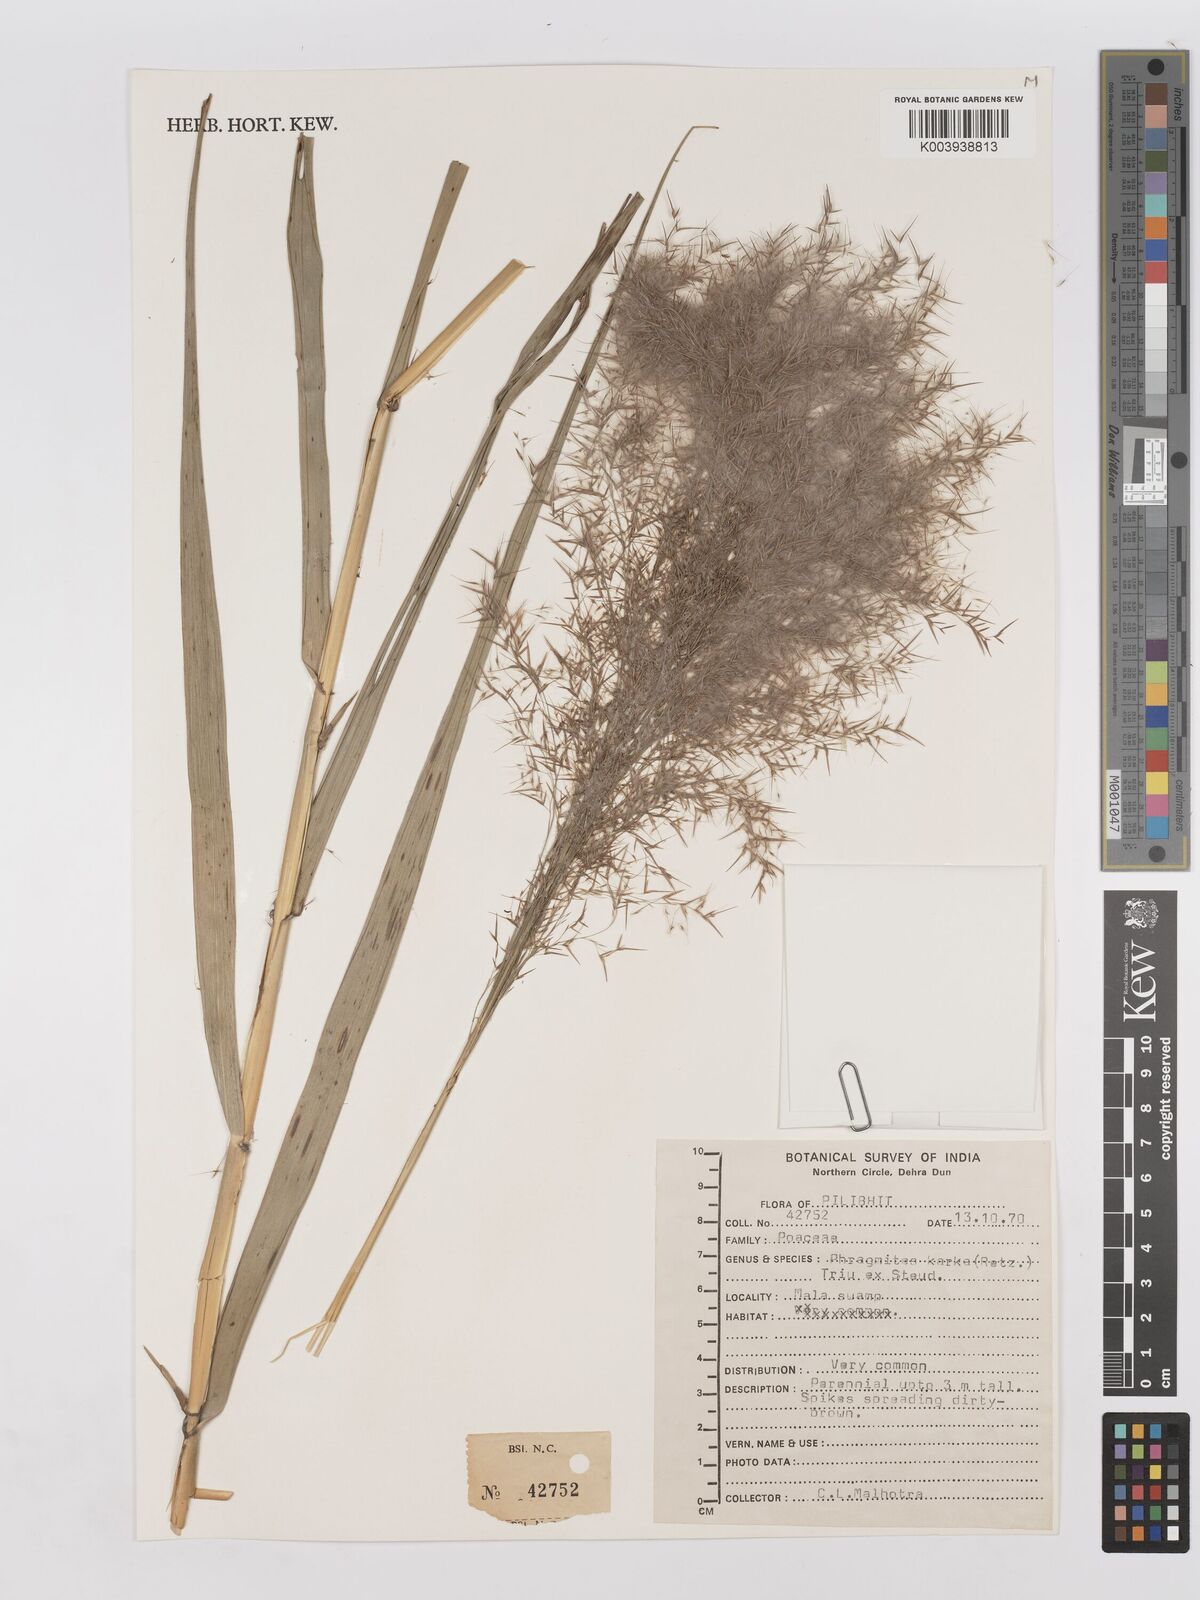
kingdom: Plantae
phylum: Tracheophyta
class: Liliopsida
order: Poales
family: Poaceae
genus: Phragmites
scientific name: Phragmites karka
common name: Tropical reed
